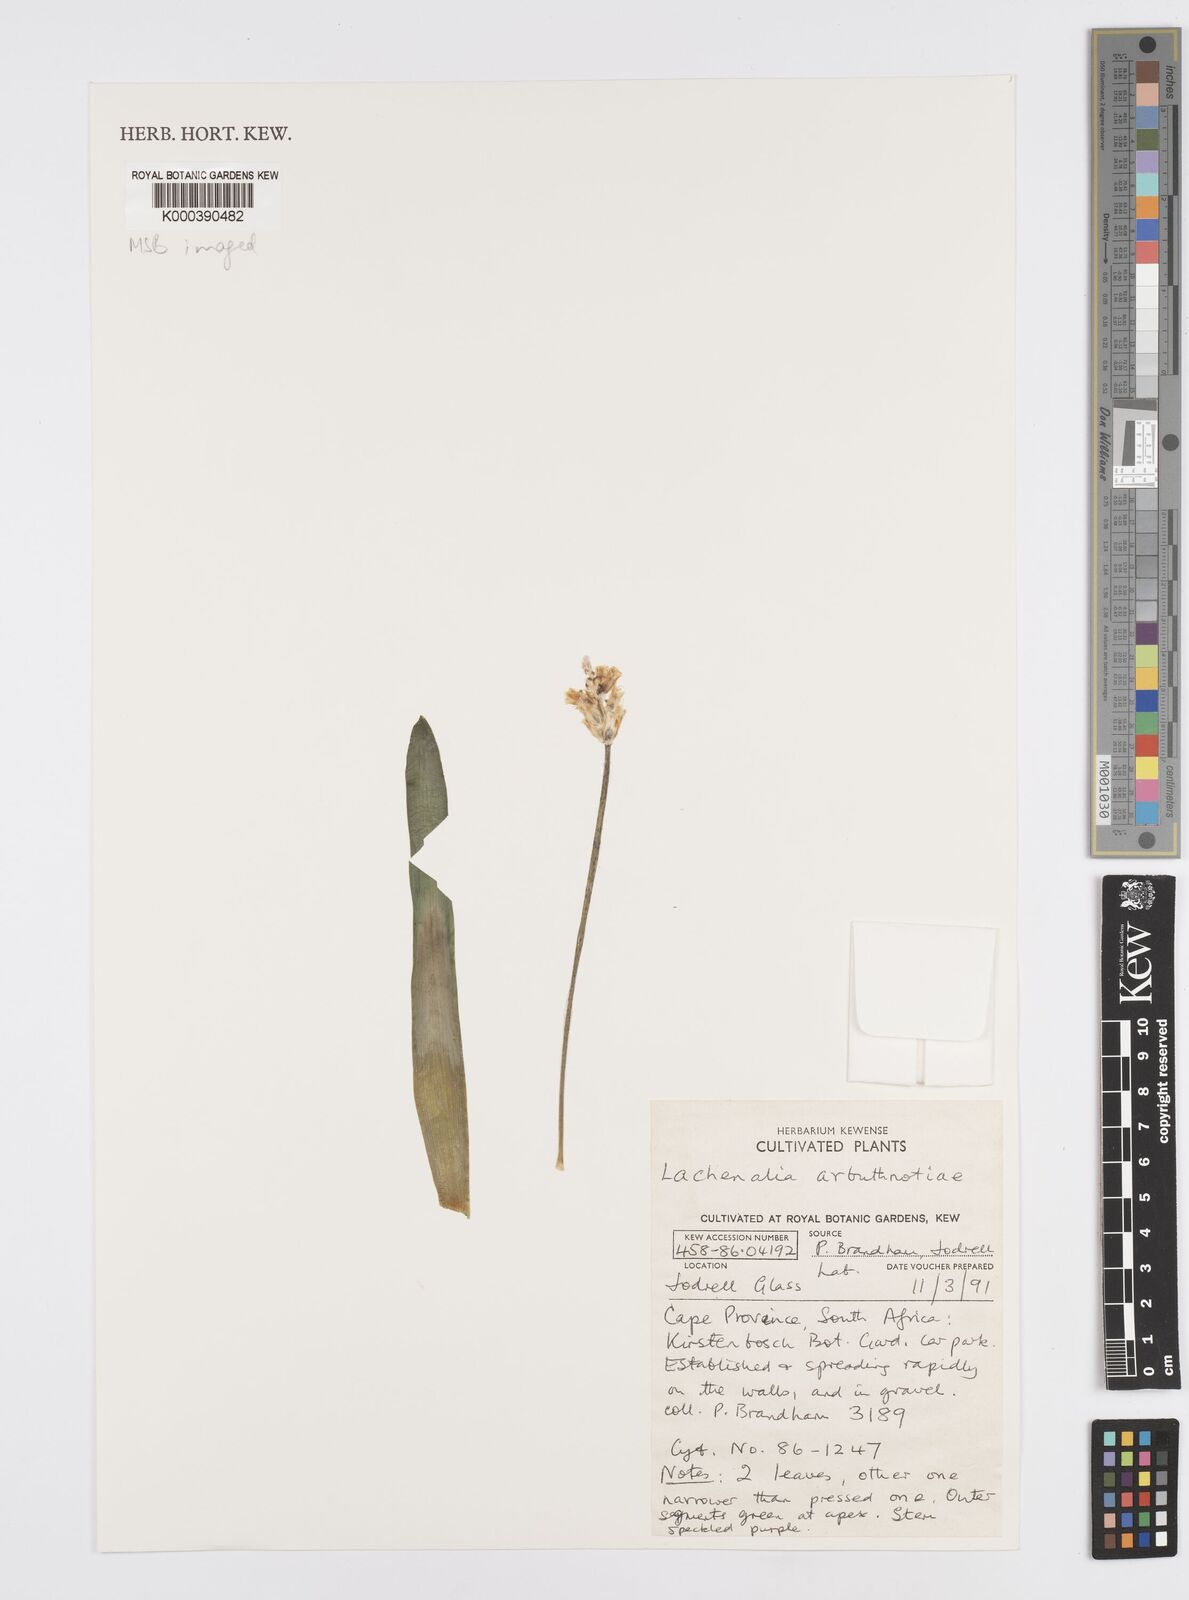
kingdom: Plantae
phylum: Tracheophyta
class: Liliopsida
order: Asparagales
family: Asparagaceae
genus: Lachenalia
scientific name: Lachenalia arbuthnotiae
